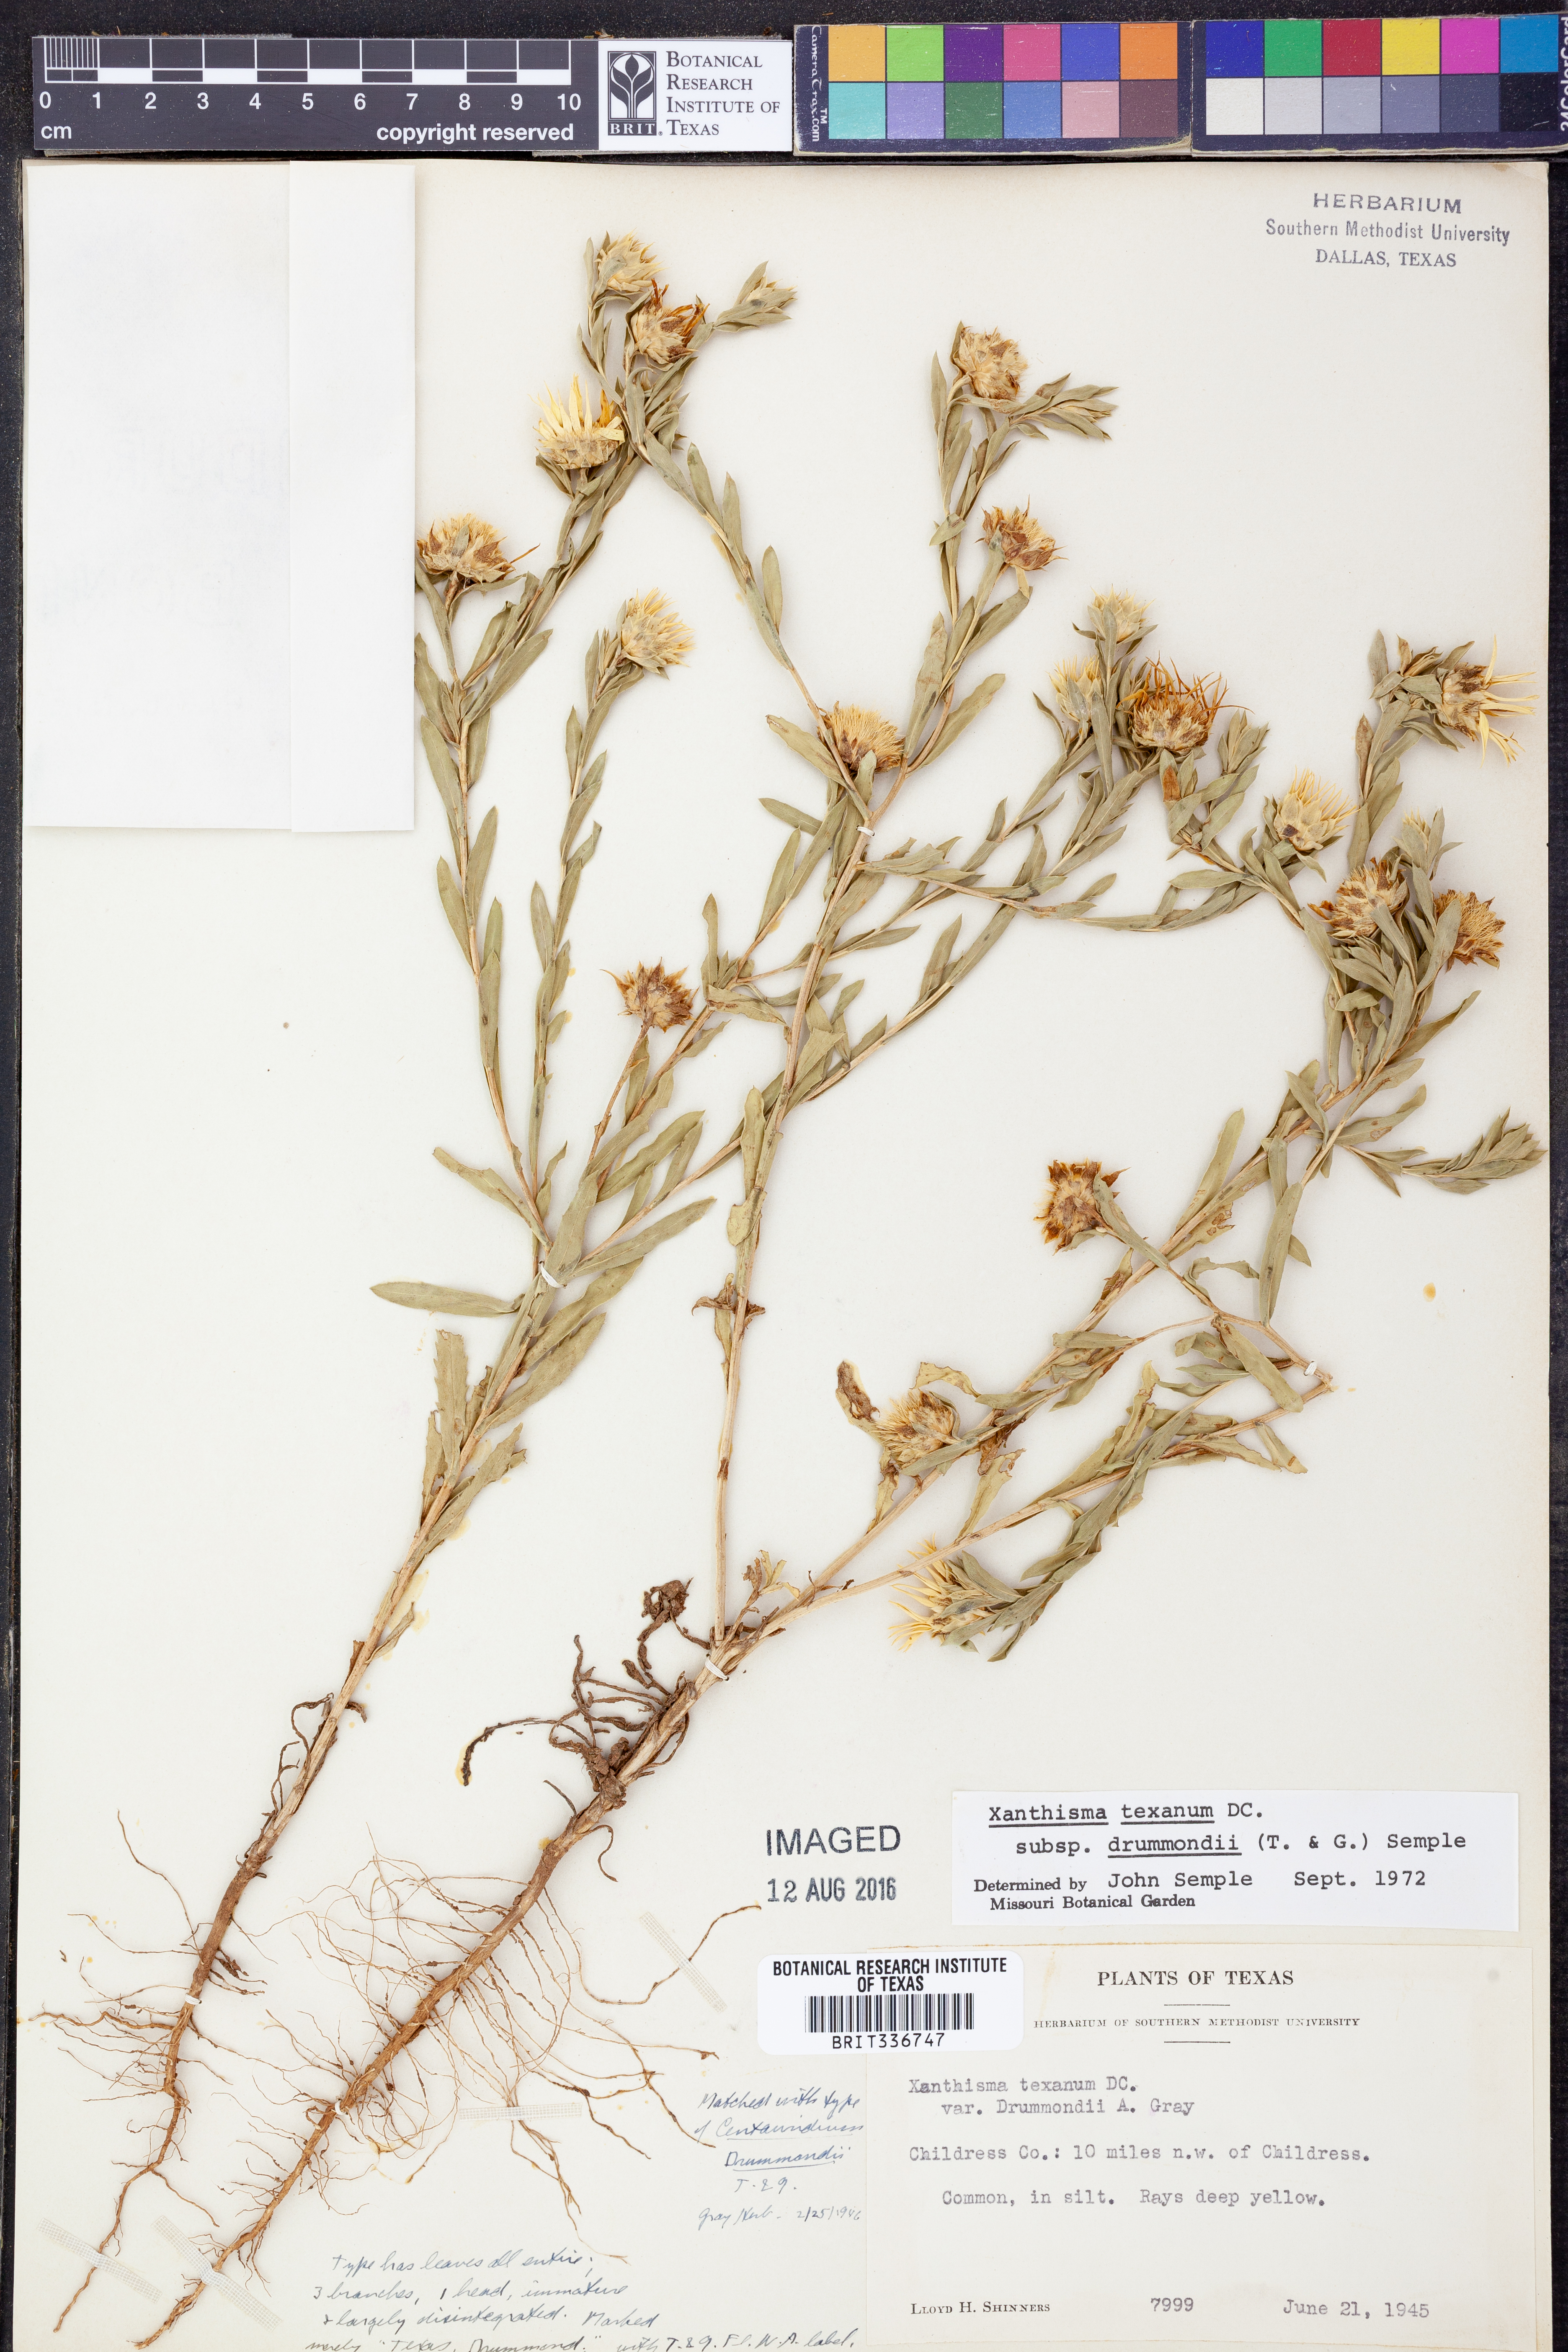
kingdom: Plantae
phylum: Tracheophyta
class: Magnoliopsida
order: Asterales
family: Asteraceae
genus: Xanthisma
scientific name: Xanthisma texanum
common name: Texas sleepy daisy
